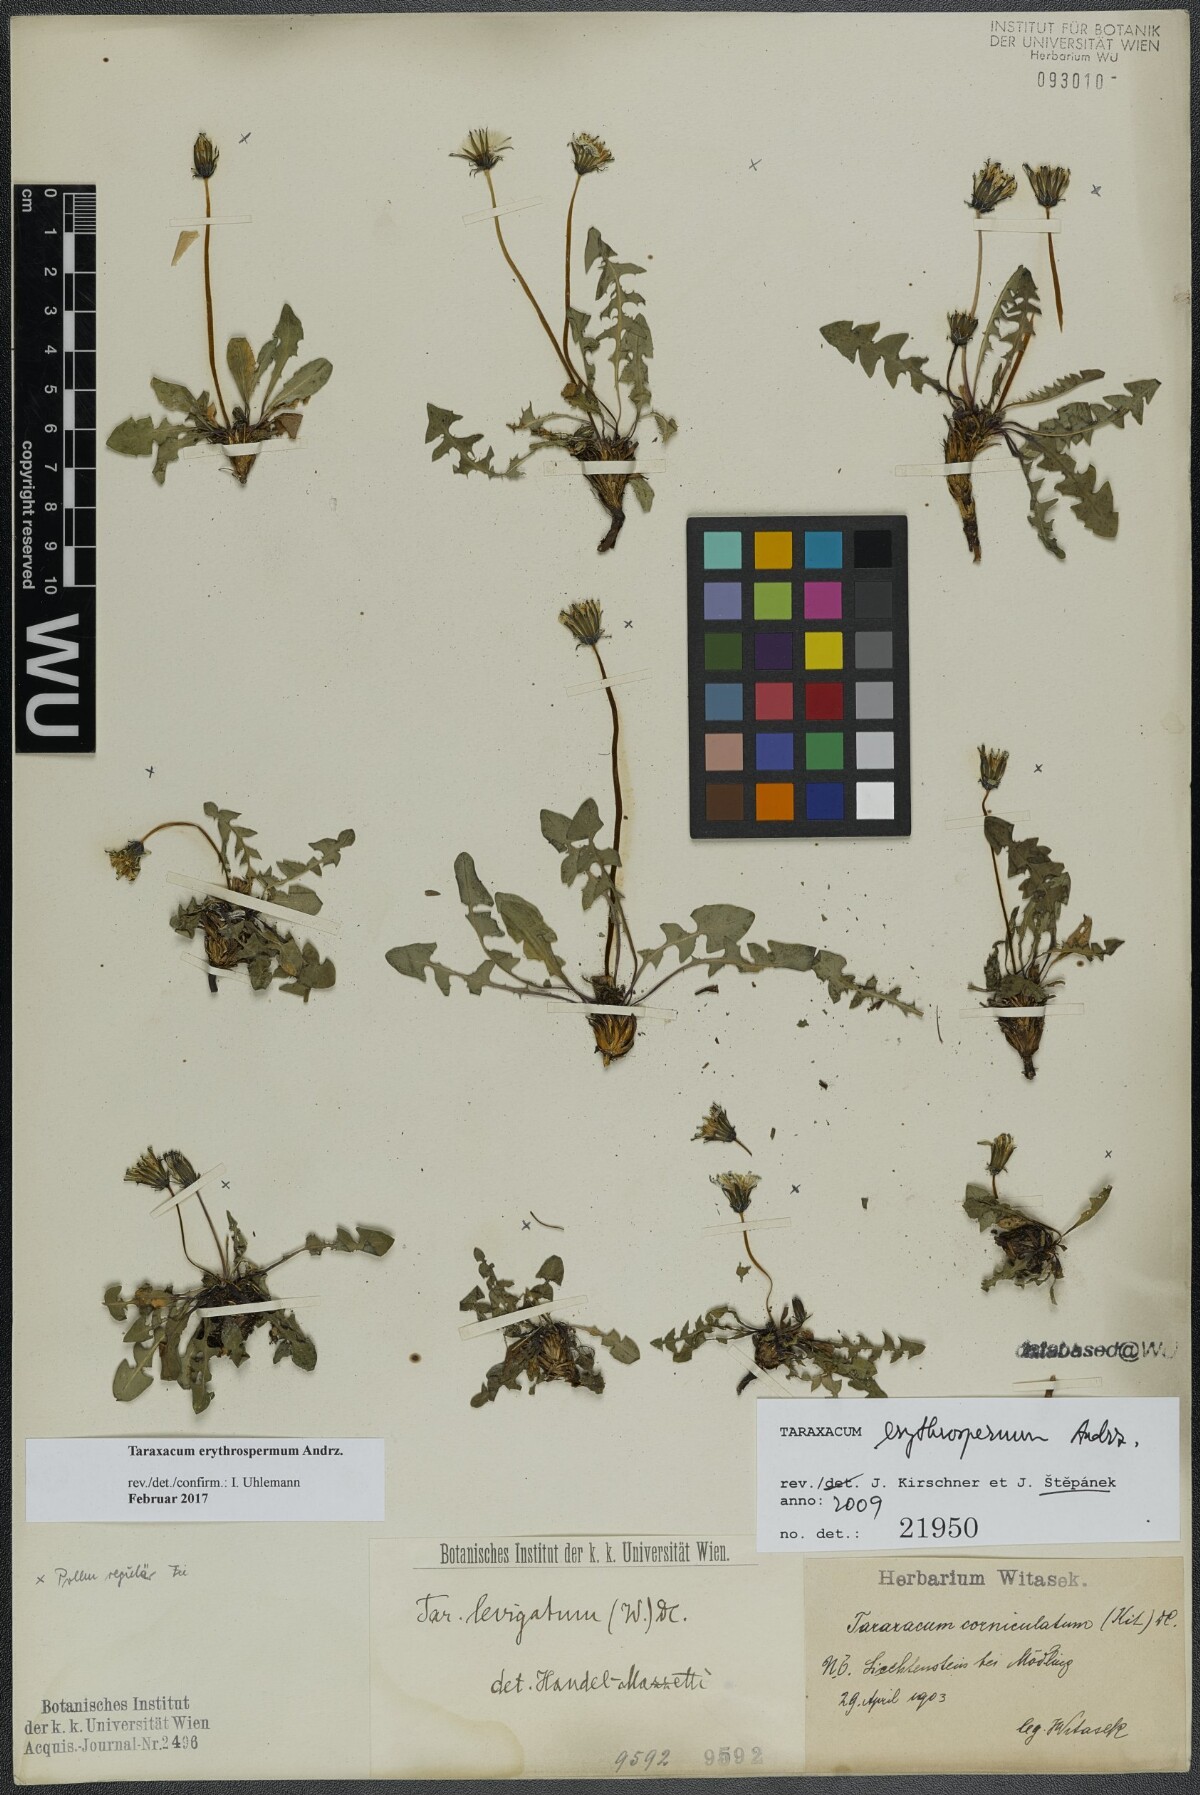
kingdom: Plantae
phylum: Tracheophyta
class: Magnoliopsida
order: Asterales
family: Asteraceae
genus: Taraxacum
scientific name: Taraxacum erythrospermum
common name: Rock dandelion
